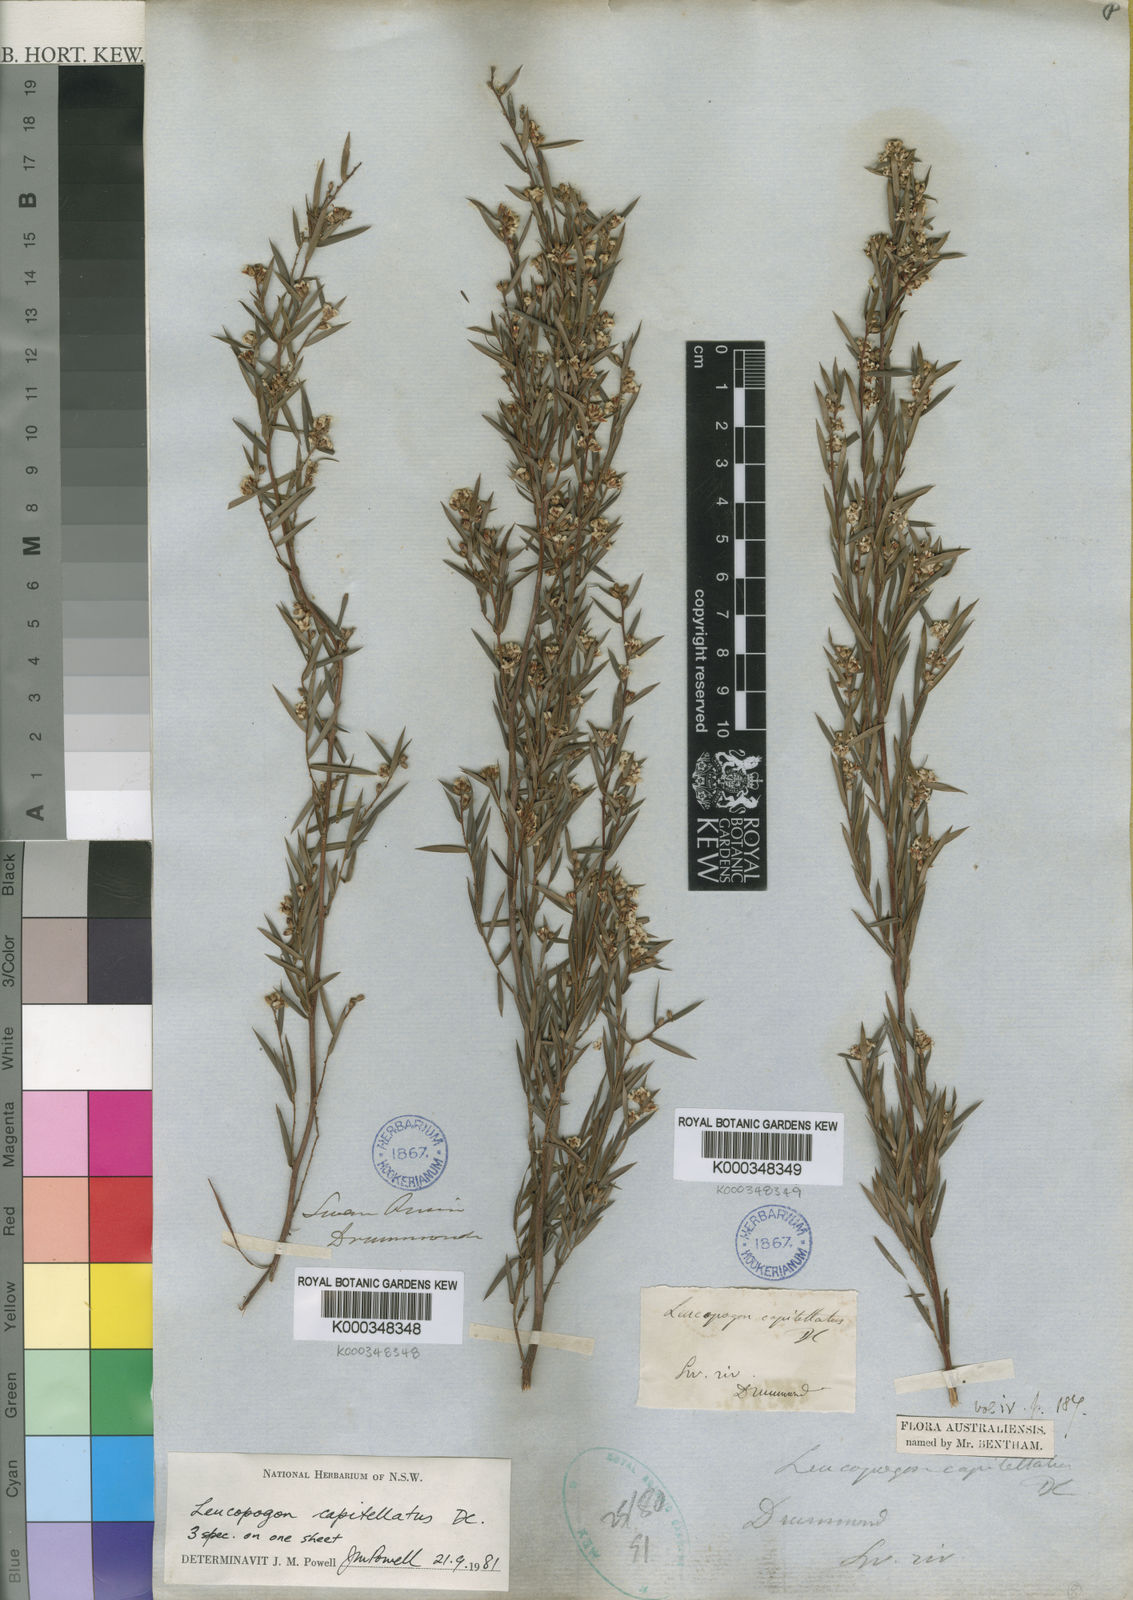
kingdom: Plantae
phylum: Tracheophyta
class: Magnoliopsida
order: Ericales
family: Ericaceae
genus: Leucopogon
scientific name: Leucopogon capitellatus
